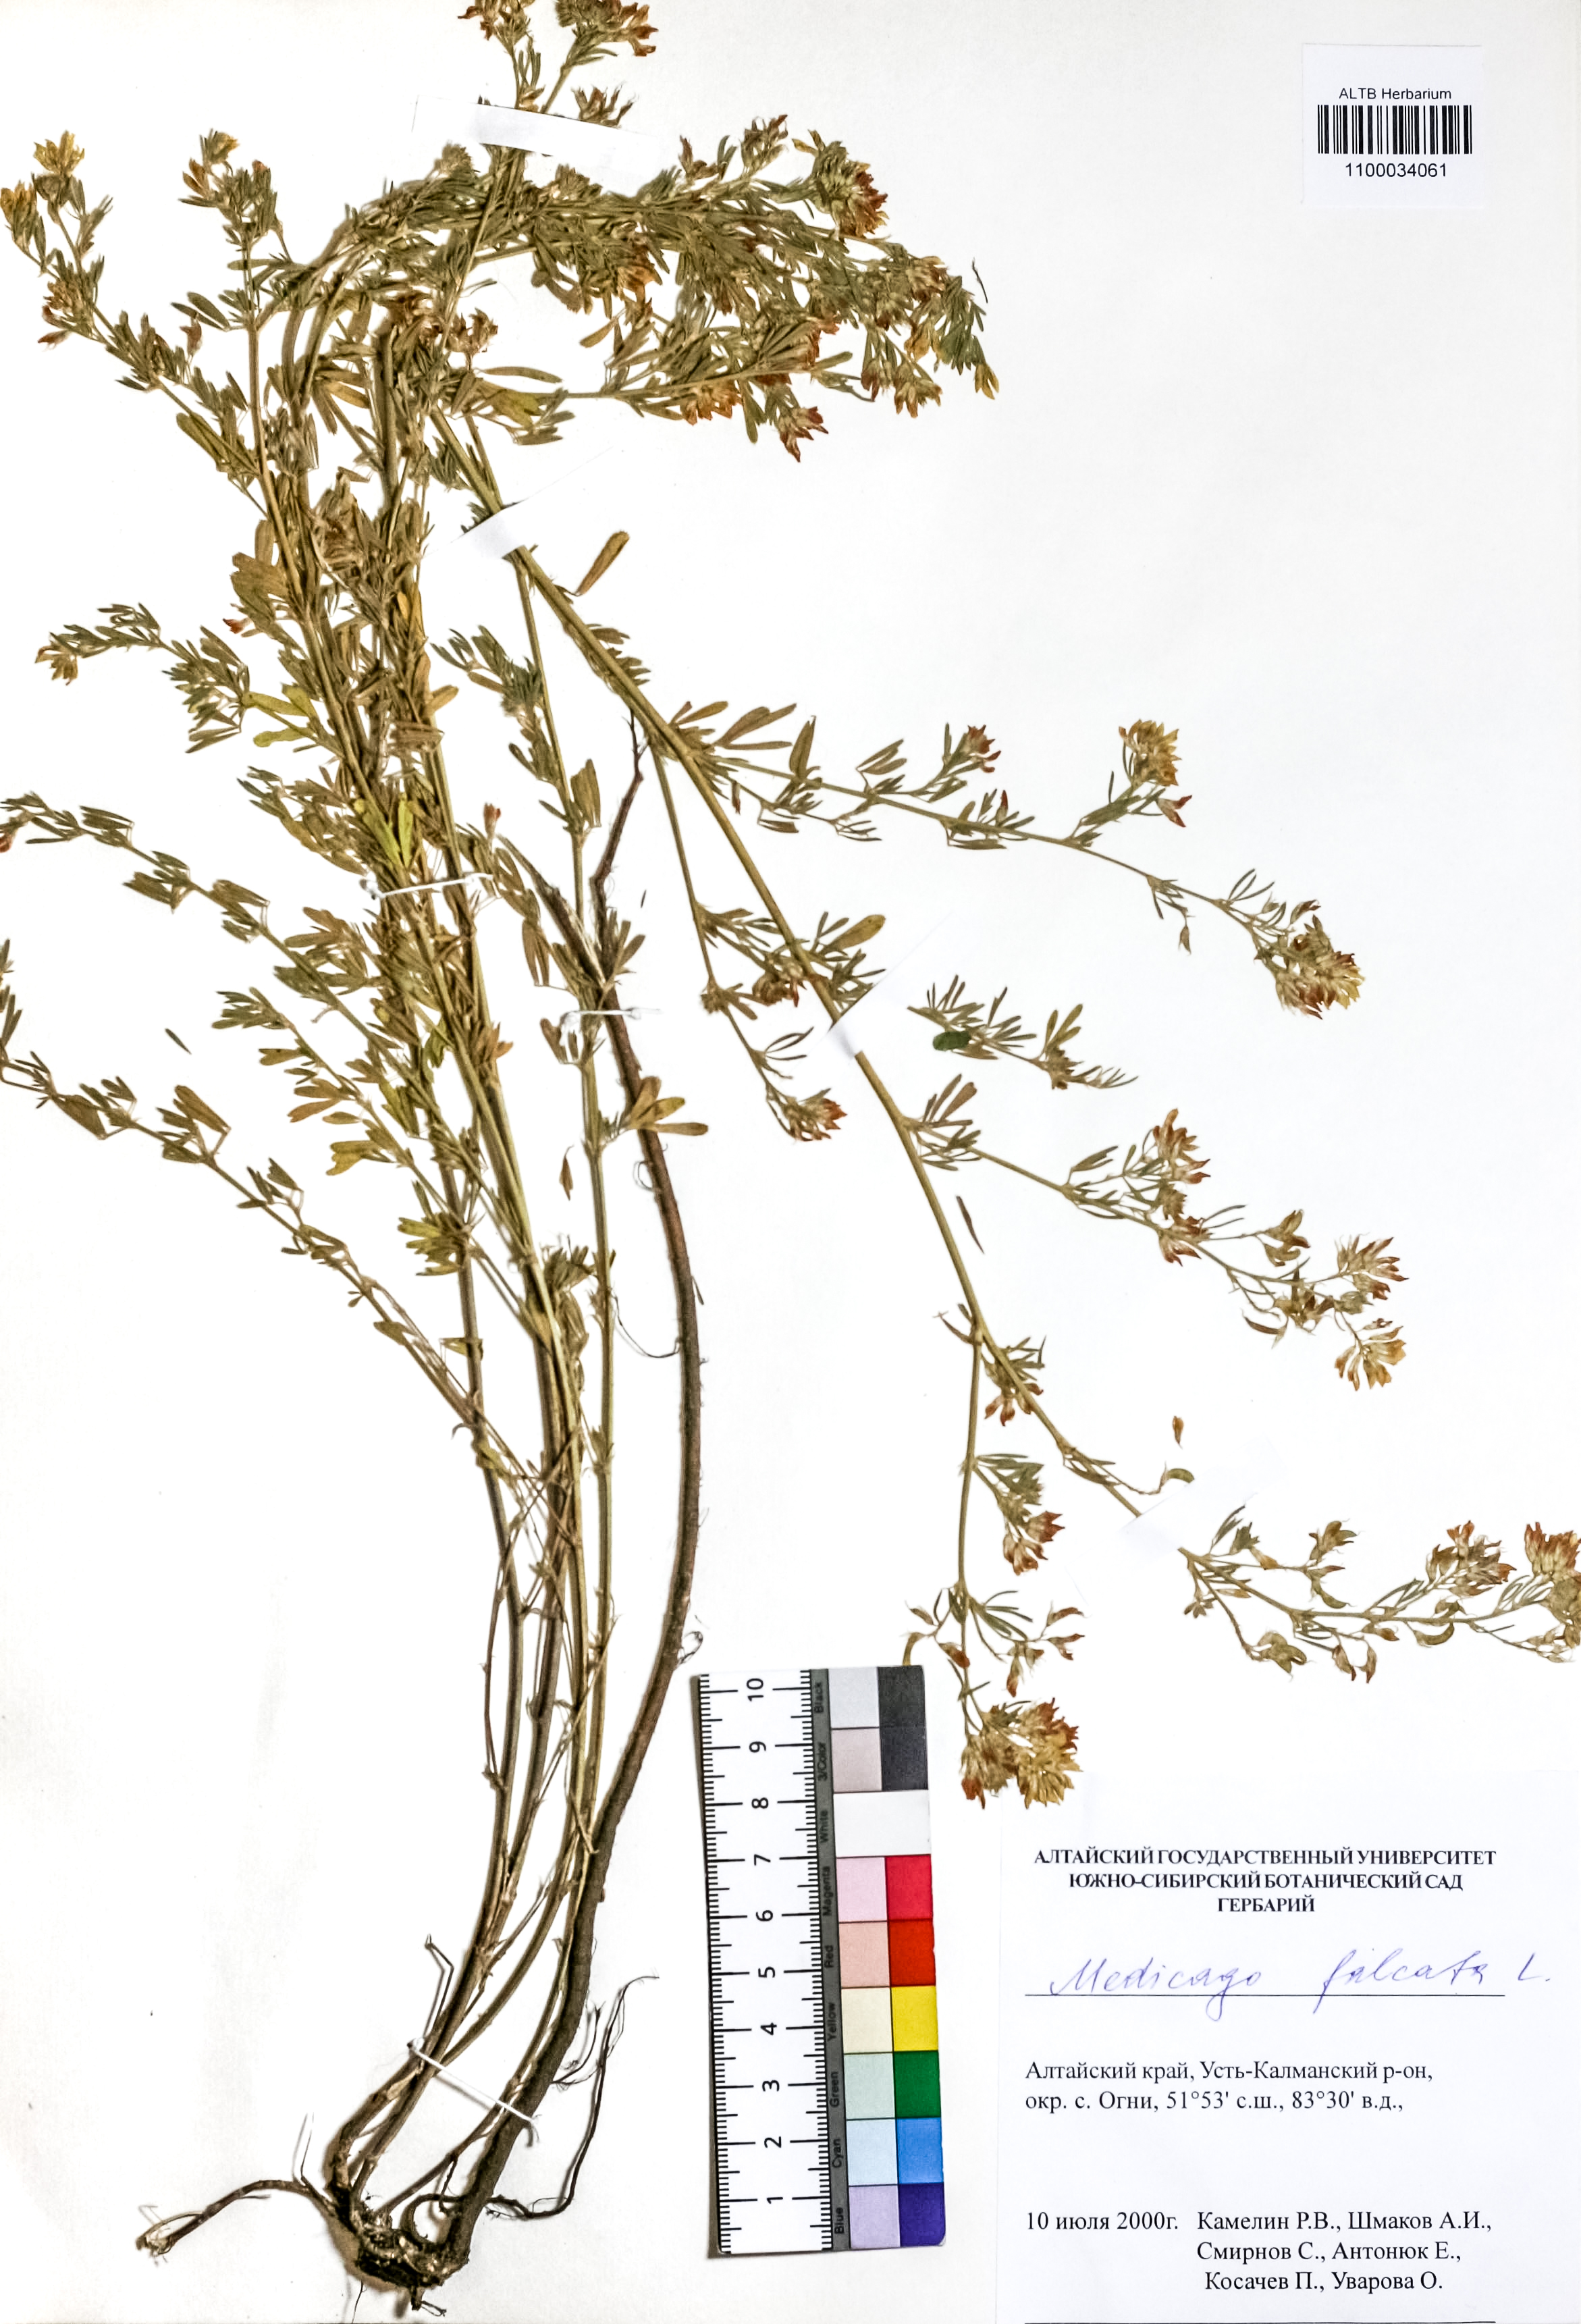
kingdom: Plantae
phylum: Tracheophyta
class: Magnoliopsida
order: Fabales
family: Fabaceae
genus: Medicago
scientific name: Medicago falcata
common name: Sickle medick
